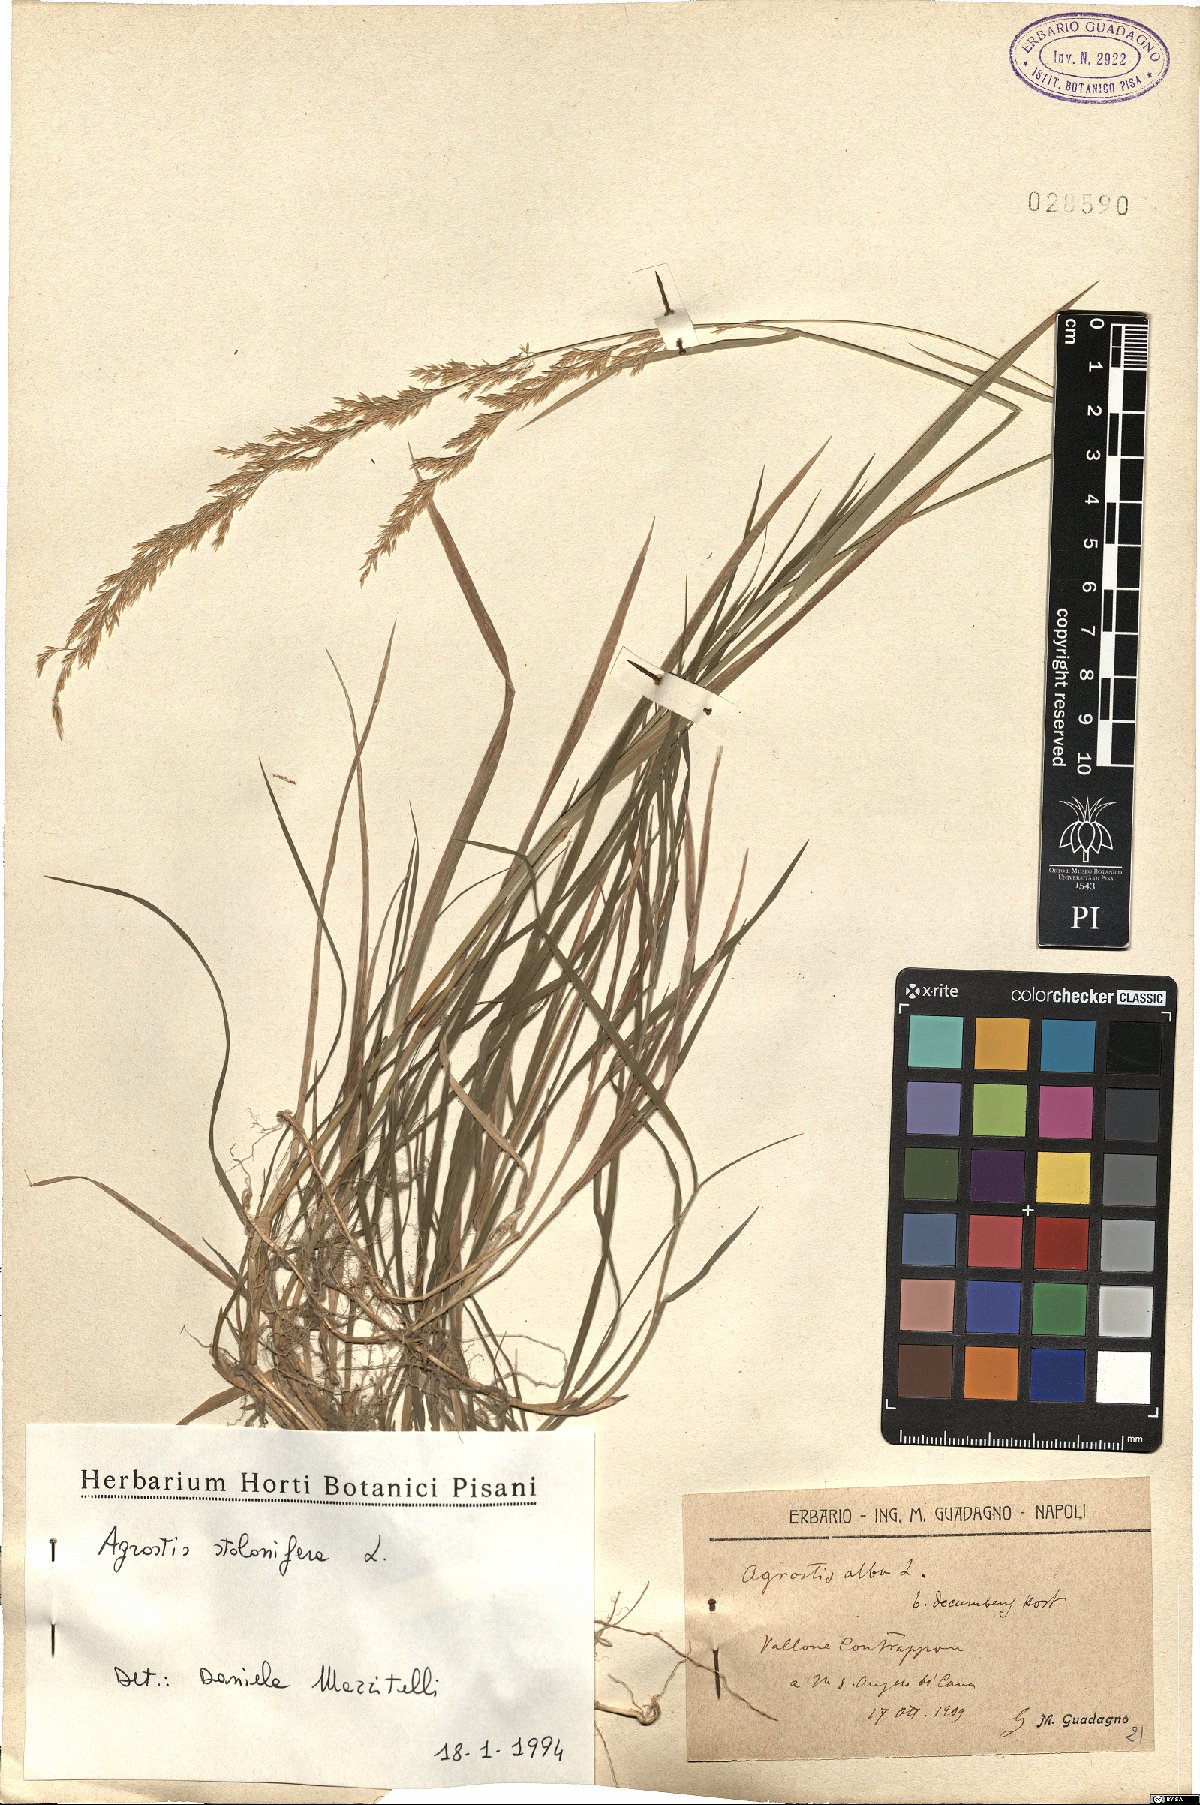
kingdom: Plantae
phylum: Tracheophyta
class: Liliopsida
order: Poales
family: Poaceae
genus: Agrostis
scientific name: Agrostis stolonifera
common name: Creeping bentgrass
